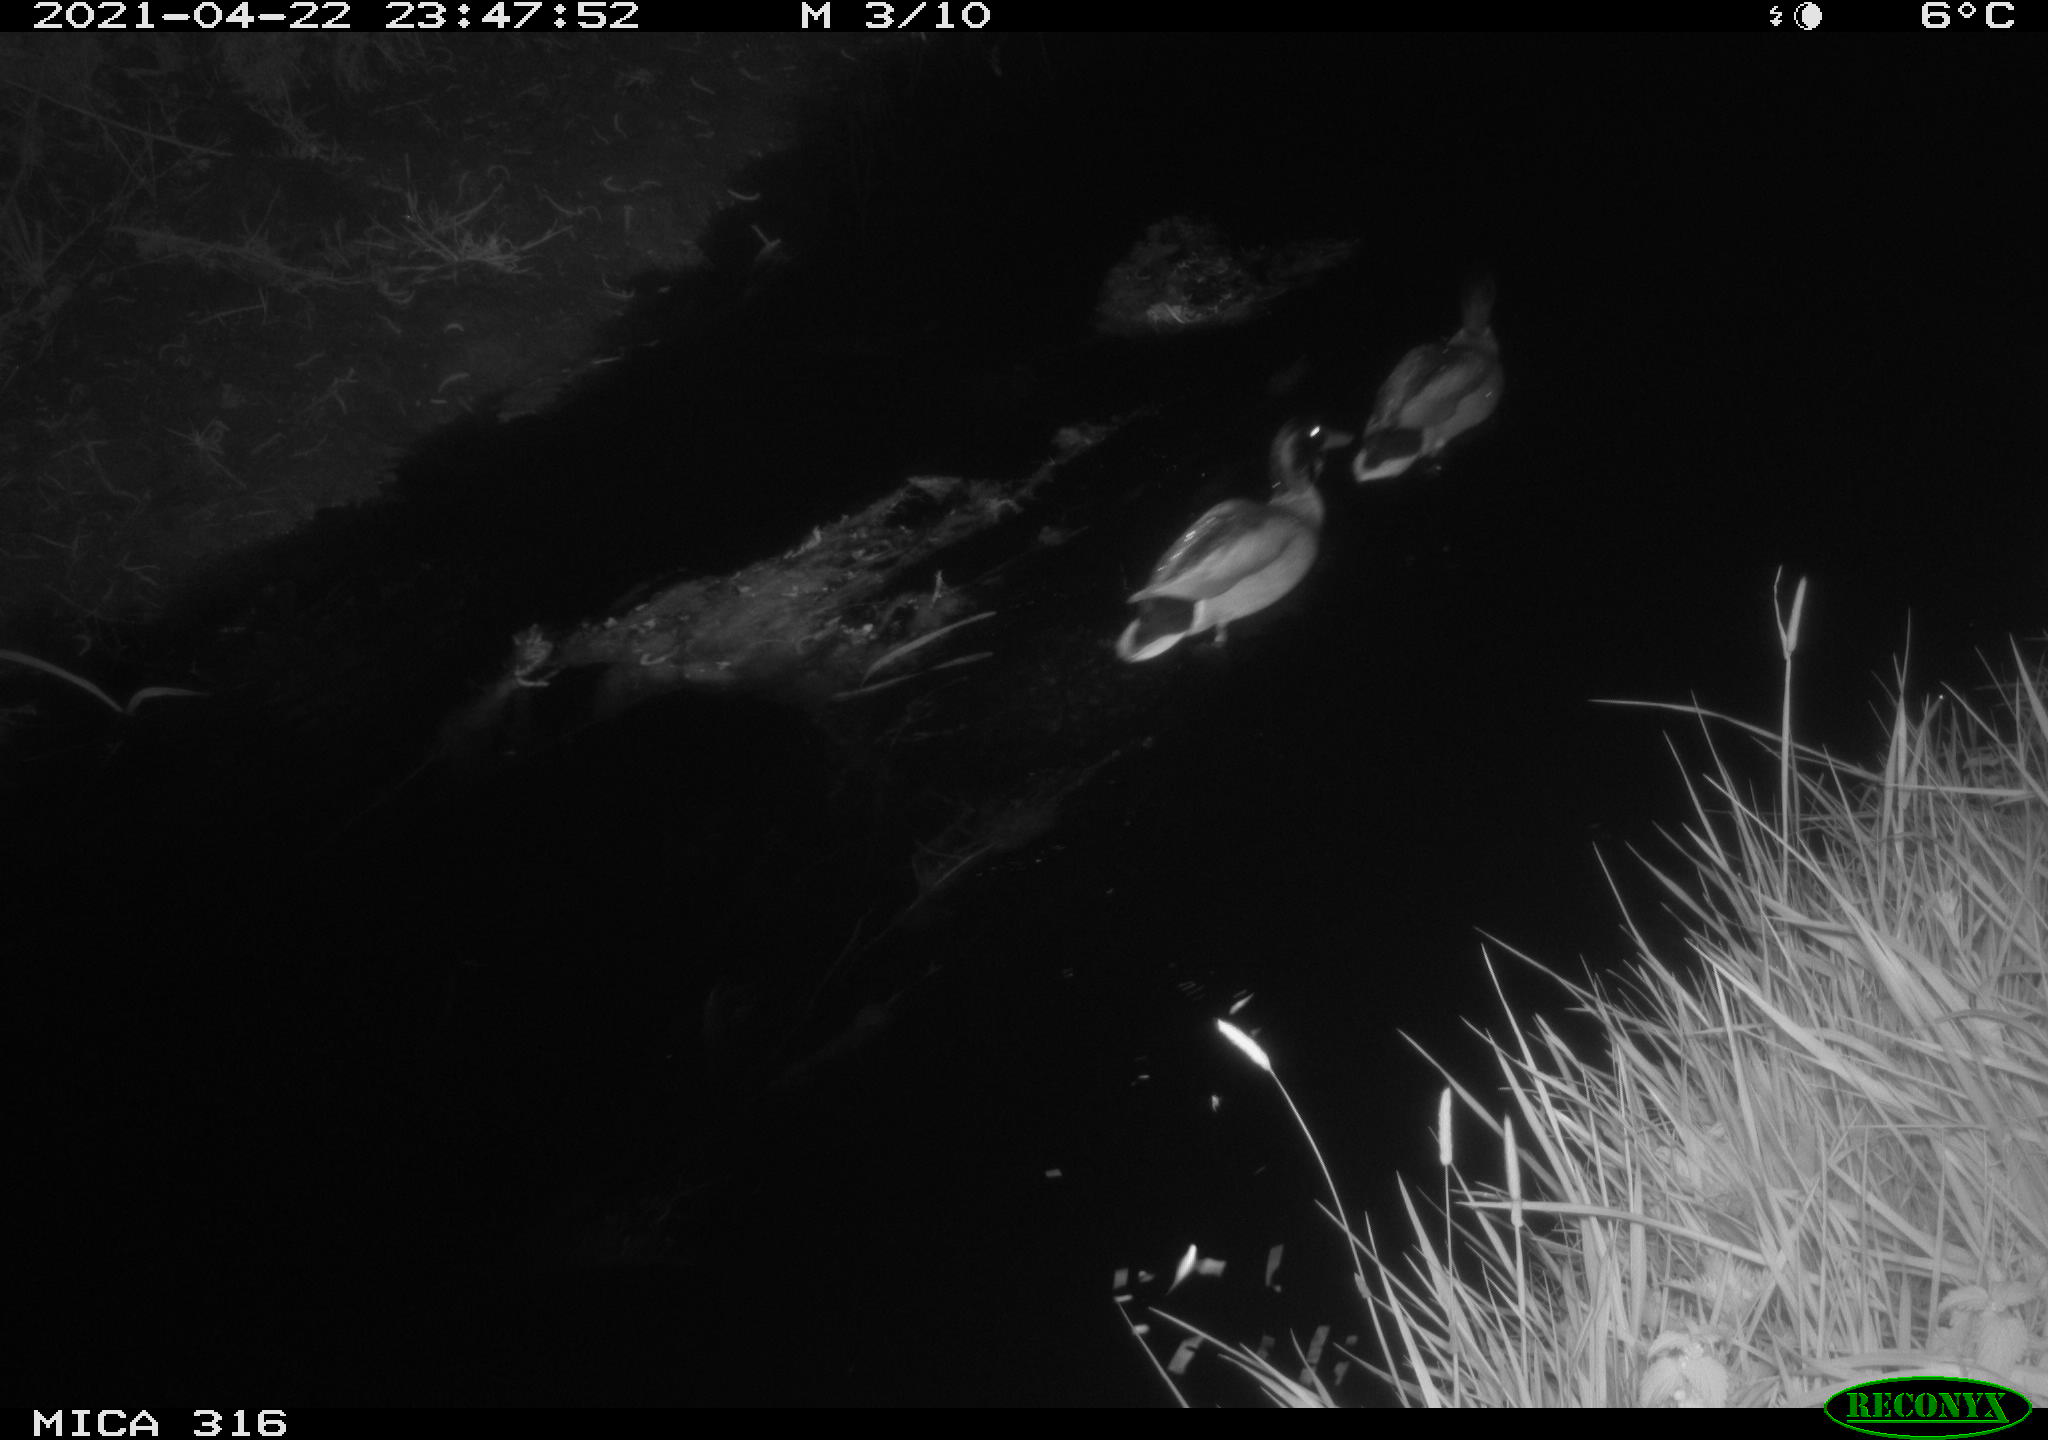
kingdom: Animalia
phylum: Chordata
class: Aves
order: Anseriformes
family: Anatidae
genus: Anas
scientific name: Anas platyrhynchos
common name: Mallard
